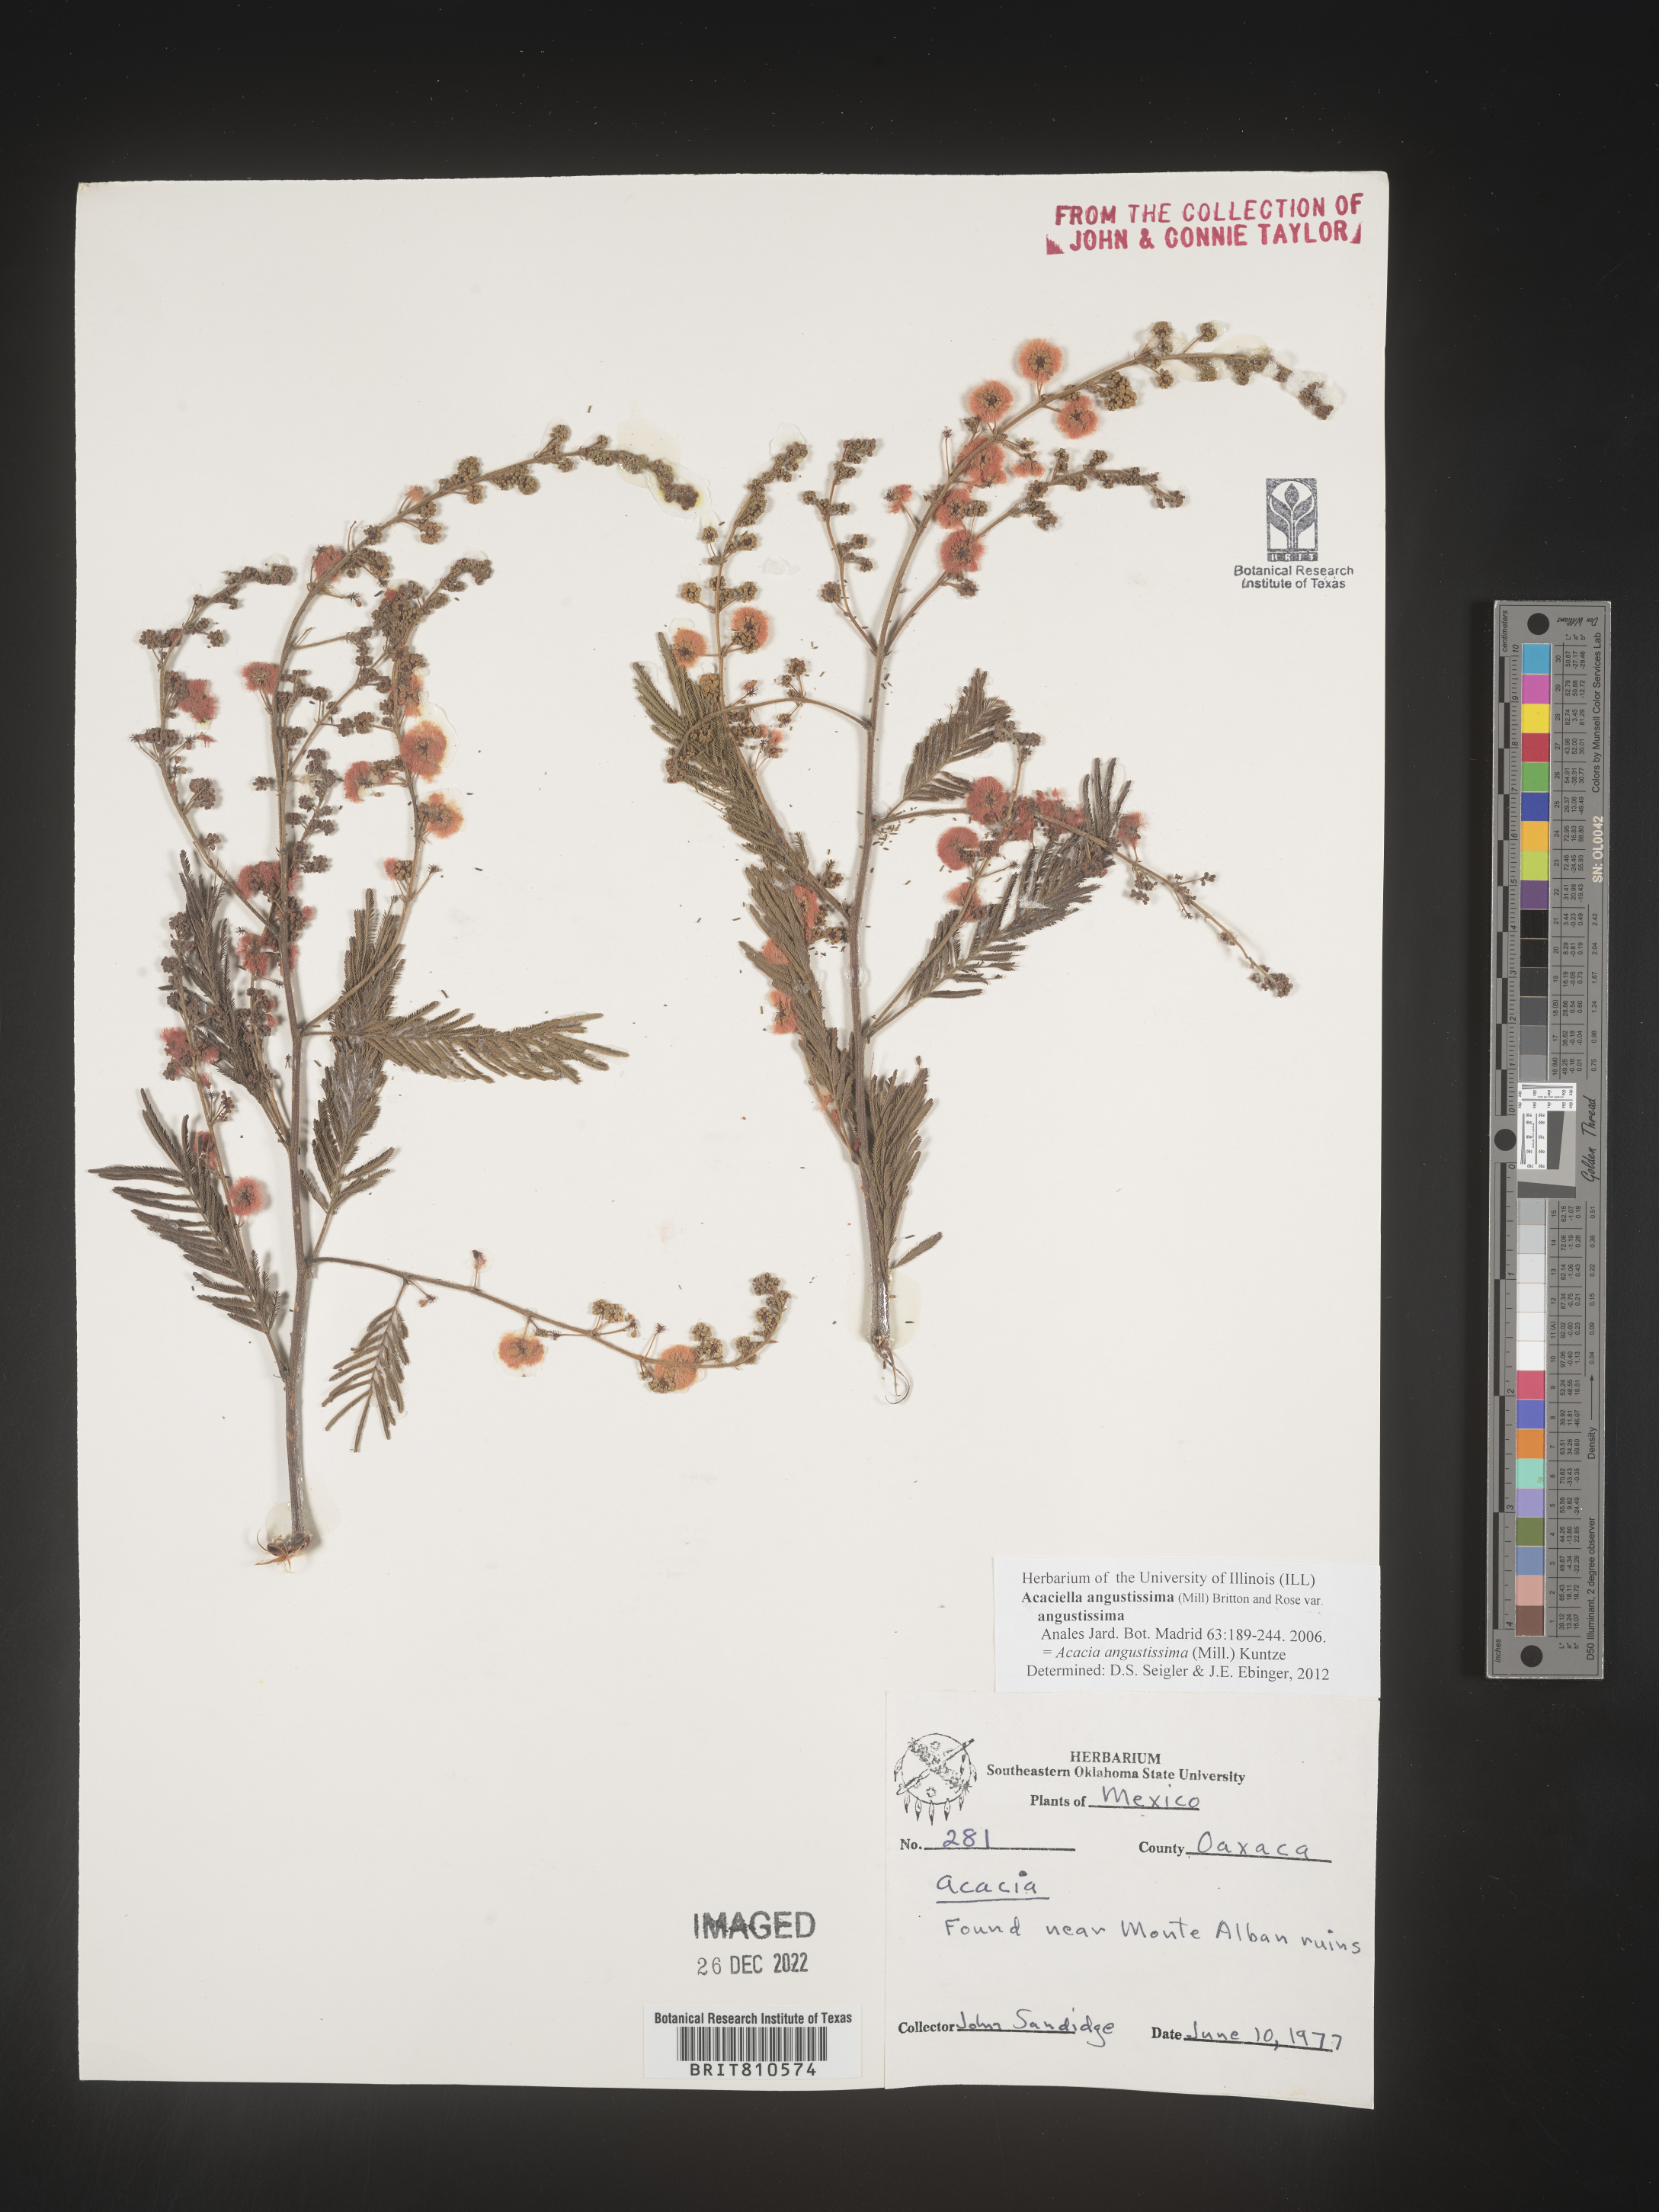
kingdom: Plantae
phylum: Tracheophyta
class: Magnoliopsida
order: Fabales
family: Fabaceae
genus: Acaciella
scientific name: Acaciella
